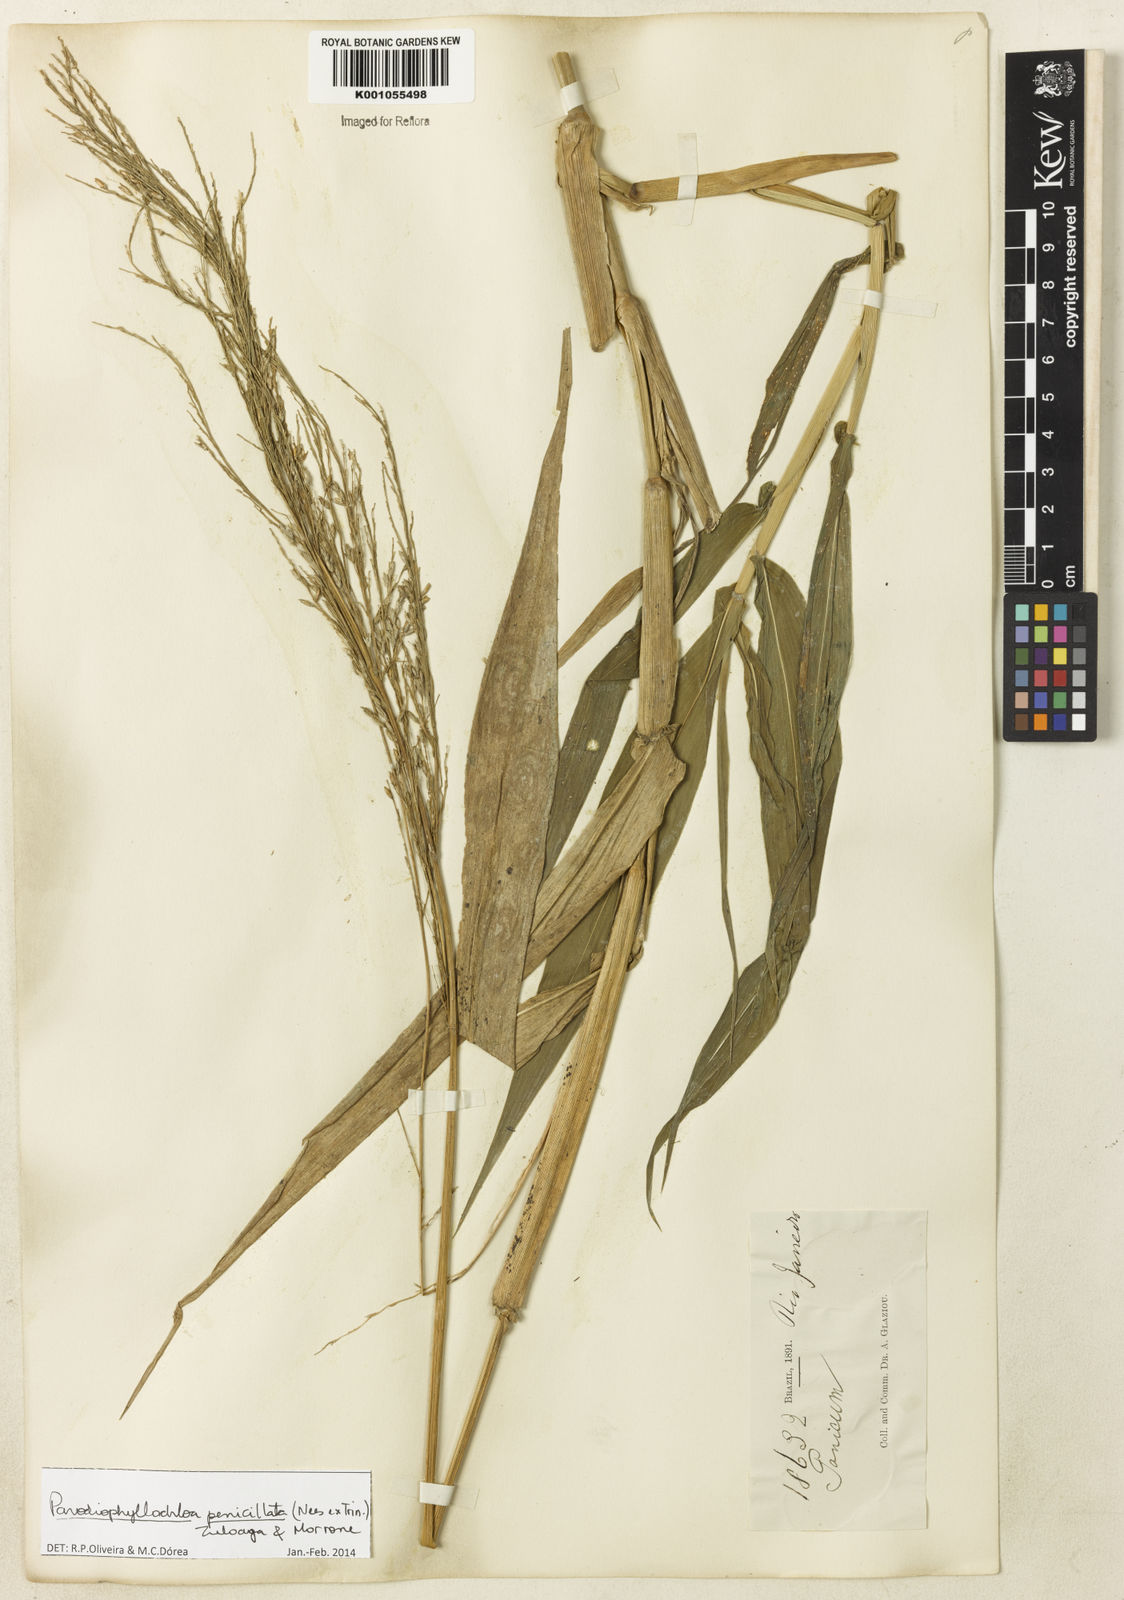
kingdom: Plantae
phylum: Tracheophyta
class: Liliopsida
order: Poales
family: Poaceae
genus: Panicum
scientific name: Panicum
